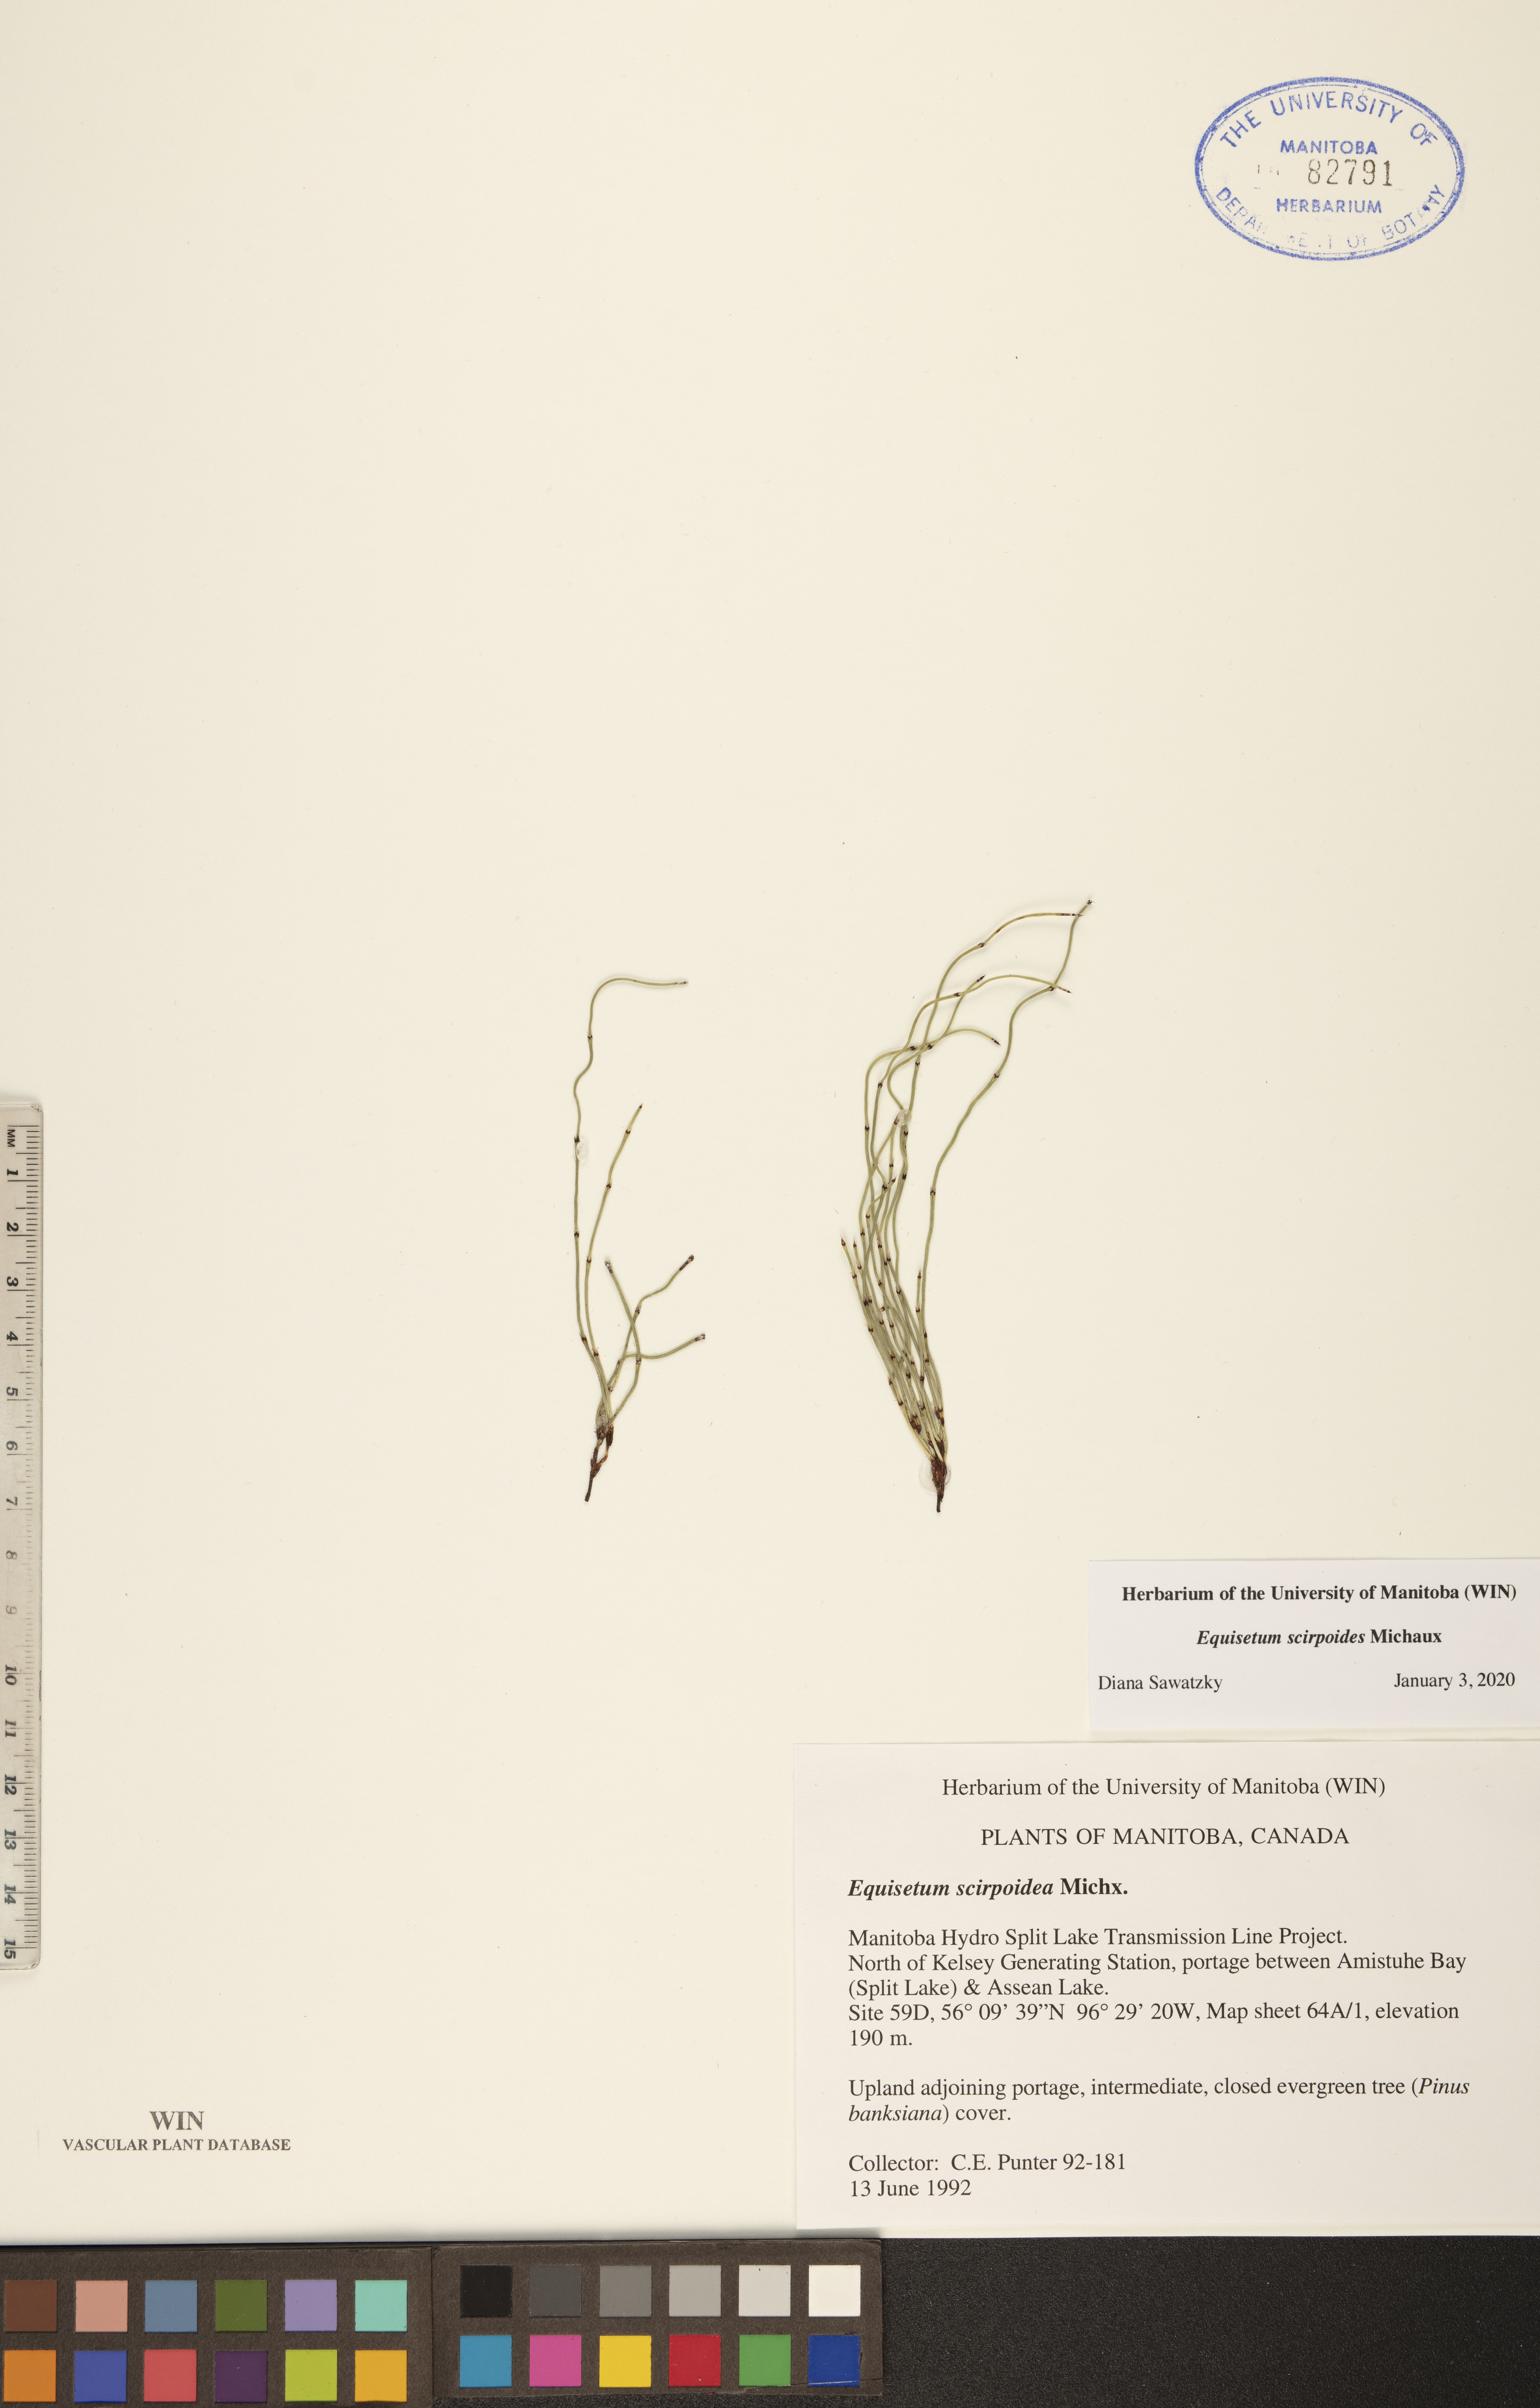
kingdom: Plantae
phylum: Tracheophyta
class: Polypodiopsida
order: Equisetales
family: Equisetaceae
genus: Equisetum
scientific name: Equisetum scirpoides
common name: Delicate horsetail
